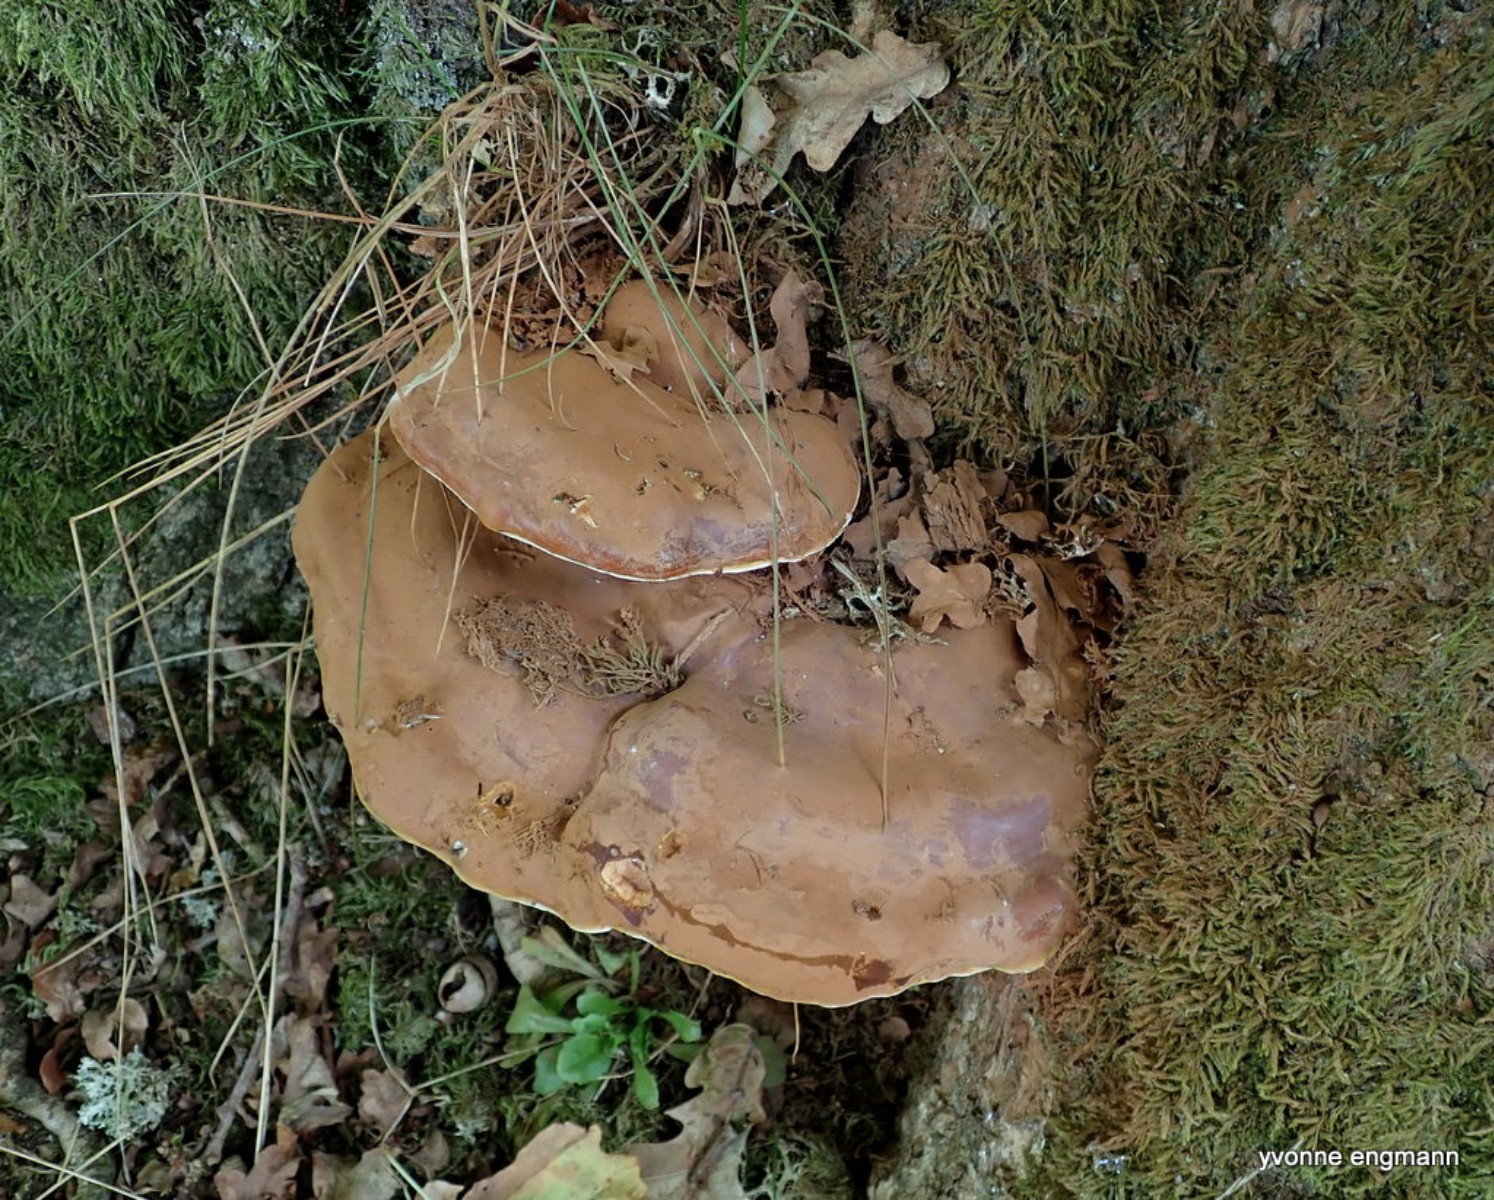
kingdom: Fungi
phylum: Basidiomycota
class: Agaricomycetes
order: Polyporales
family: Polyporaceae
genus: Ganoderma
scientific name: Ganoderma resinaceum
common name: gyldenbrun lakporesvamp
